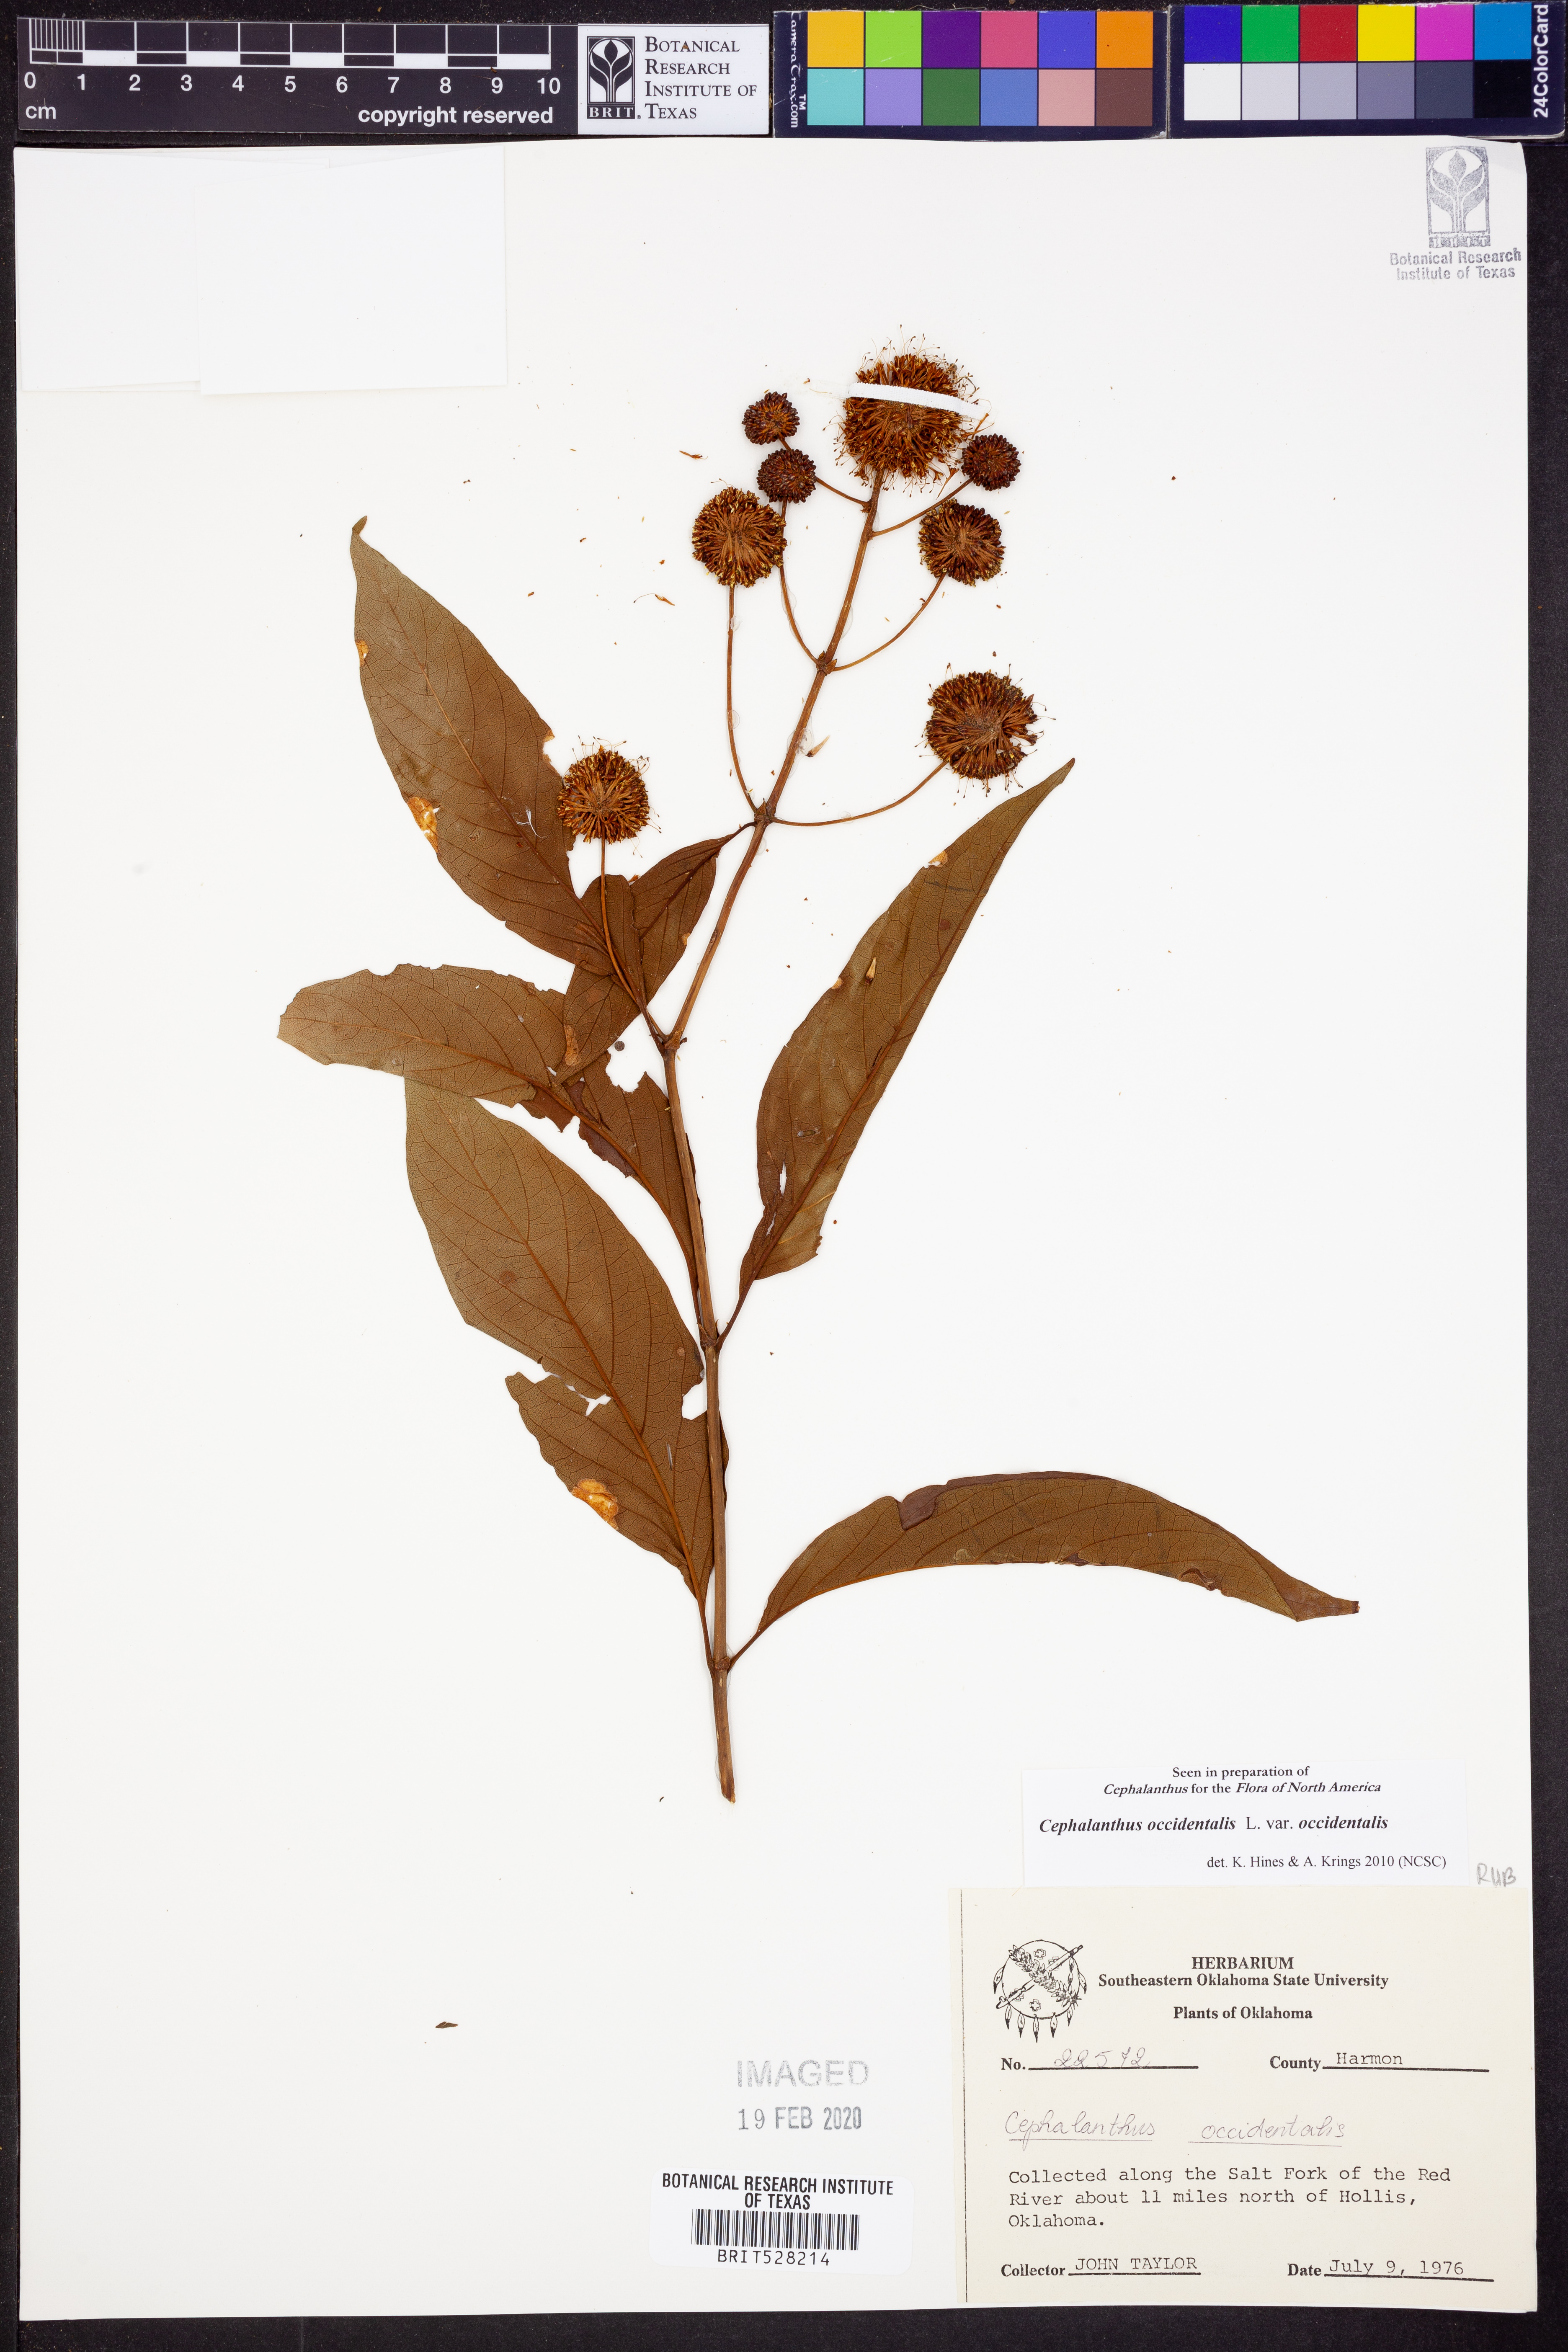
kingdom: Plantae
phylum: Tracheophyta
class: Magnoliopsida
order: Gentianales
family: Rubiaceae
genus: Cephalanthus
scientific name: Cephalanthus occidentalis
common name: Button-willow
